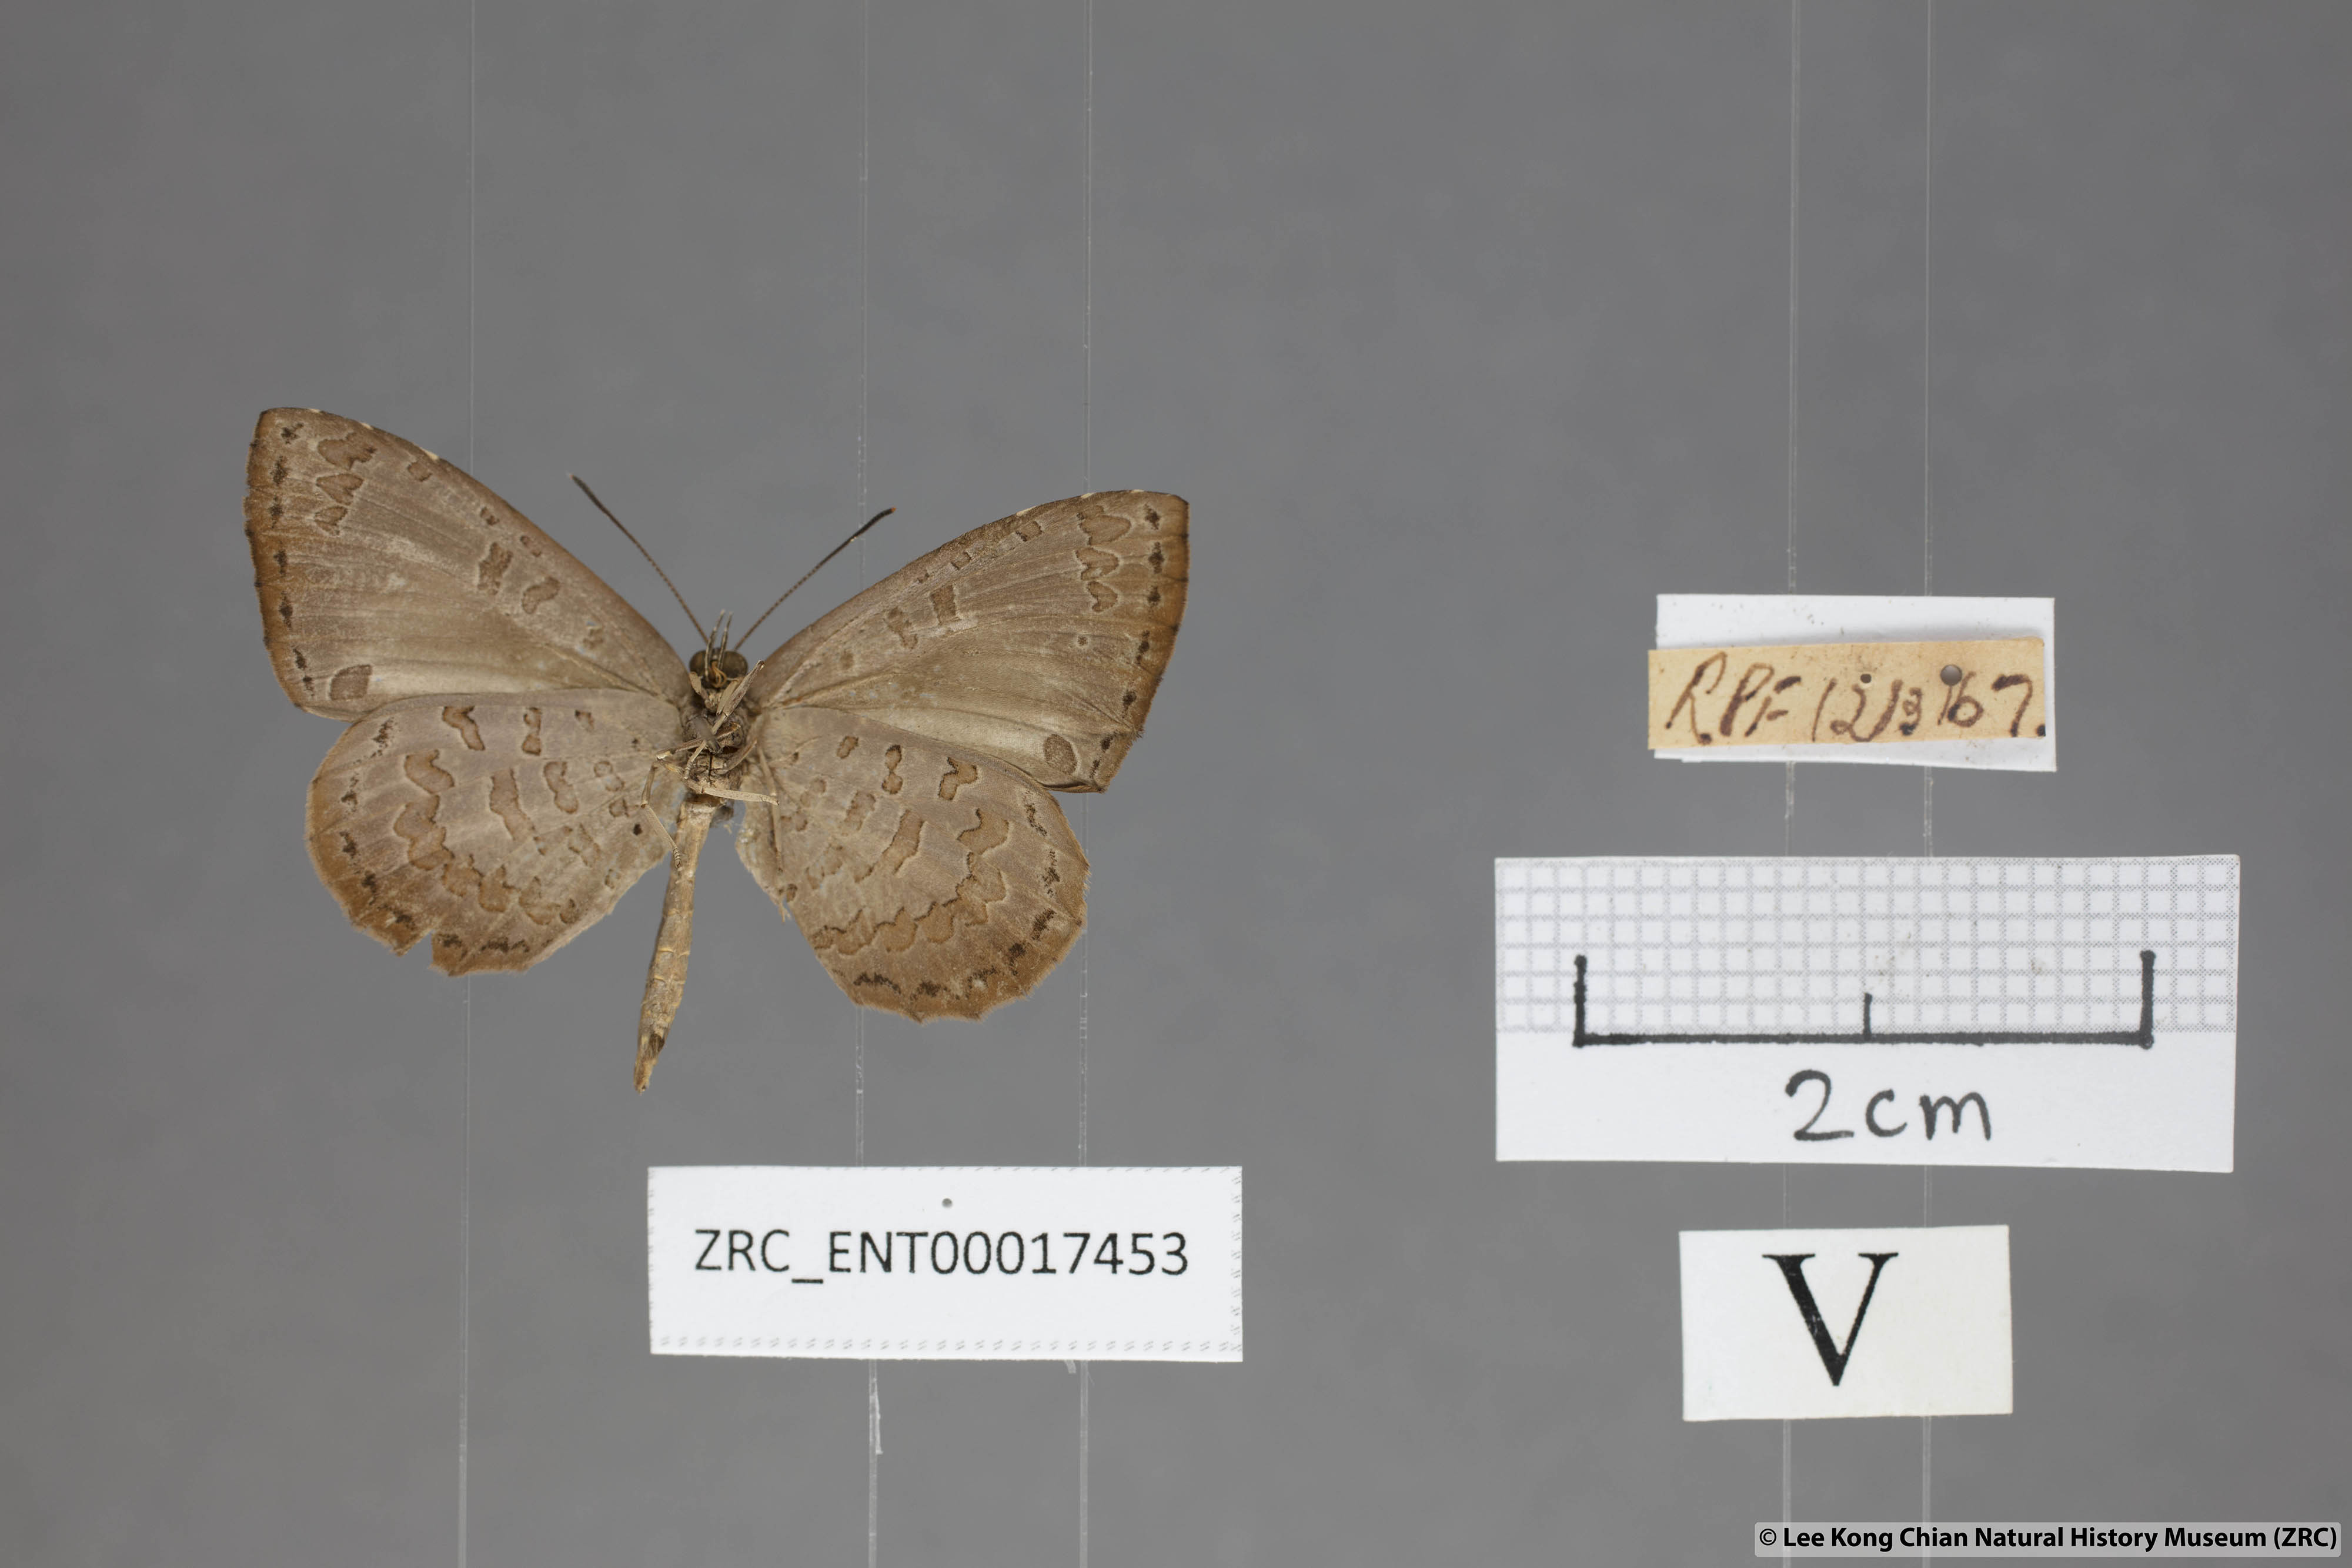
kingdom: Animalia
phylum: Arthropoda
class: Insecta
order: Lepidoptera
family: Lycaenidae
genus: Miletus
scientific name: Miletus gaesa
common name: Brown brownie
